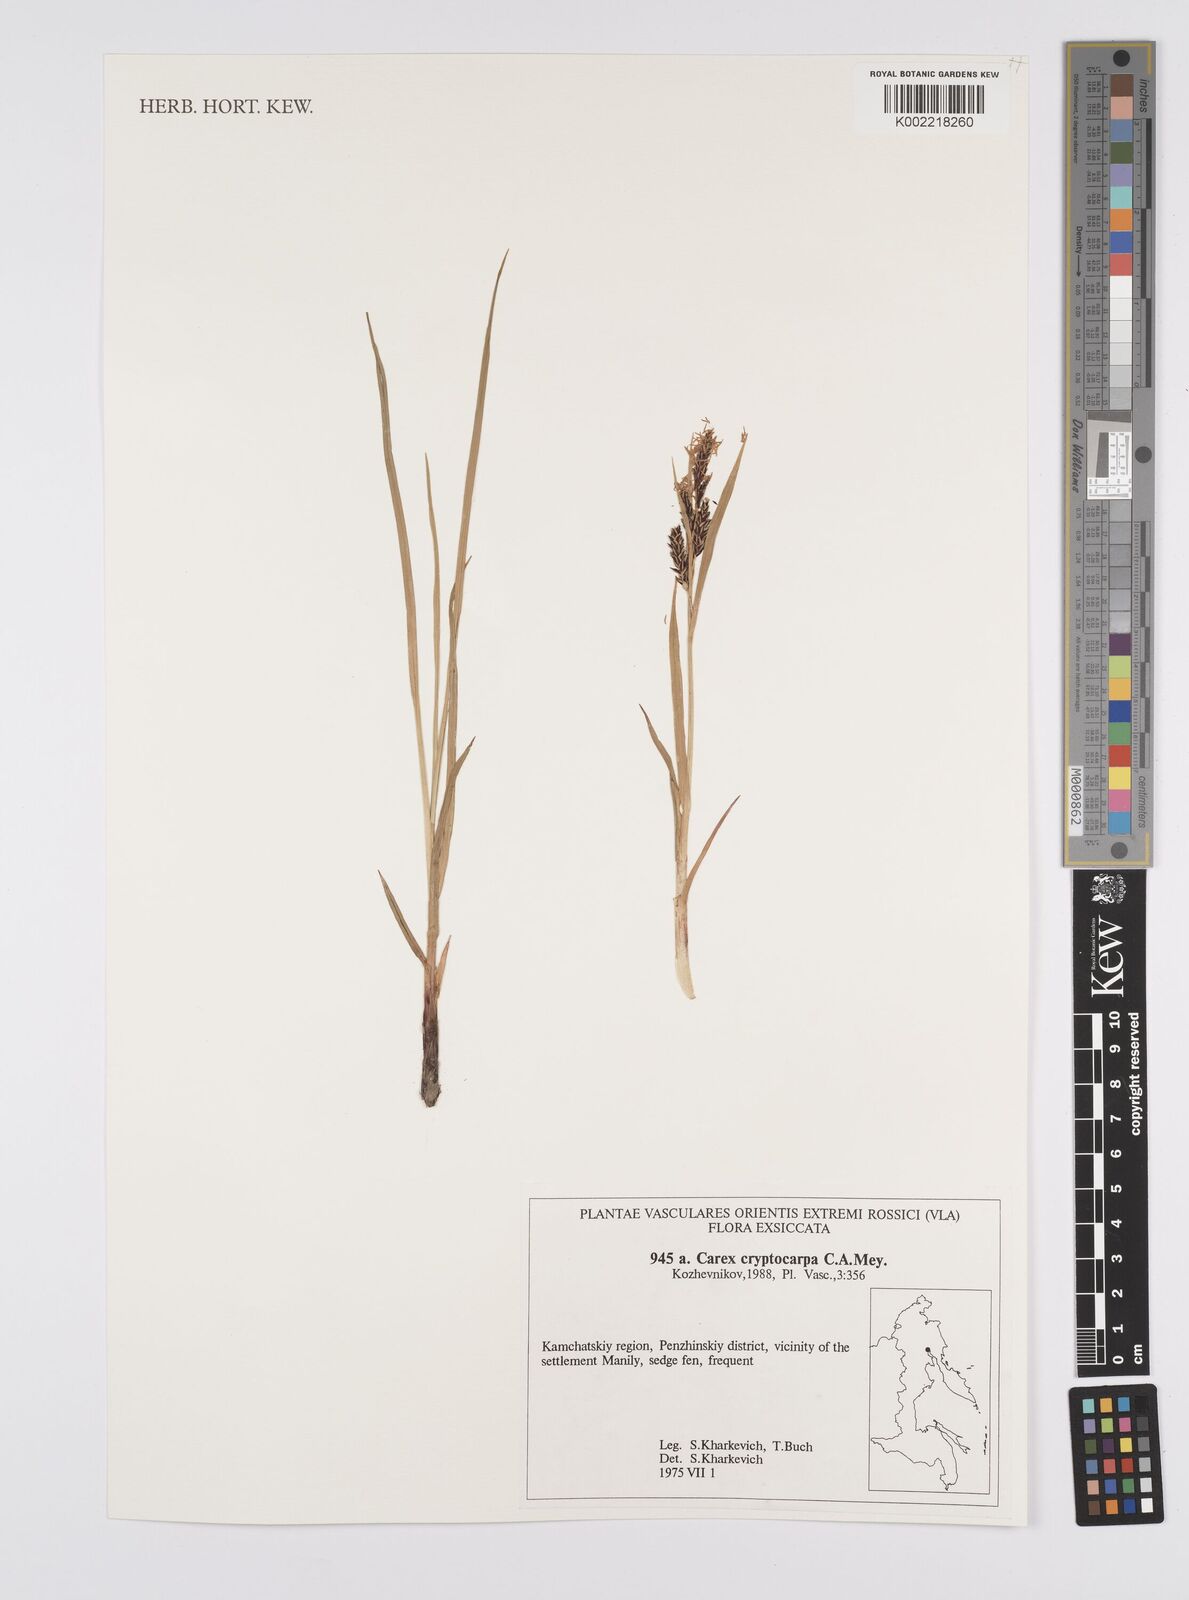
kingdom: Plantae
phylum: Tracheophyta
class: Liliopsida
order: Poales
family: Cyperaceae
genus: Carex
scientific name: Carex lyngbyei
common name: Lyngbye's sedge
